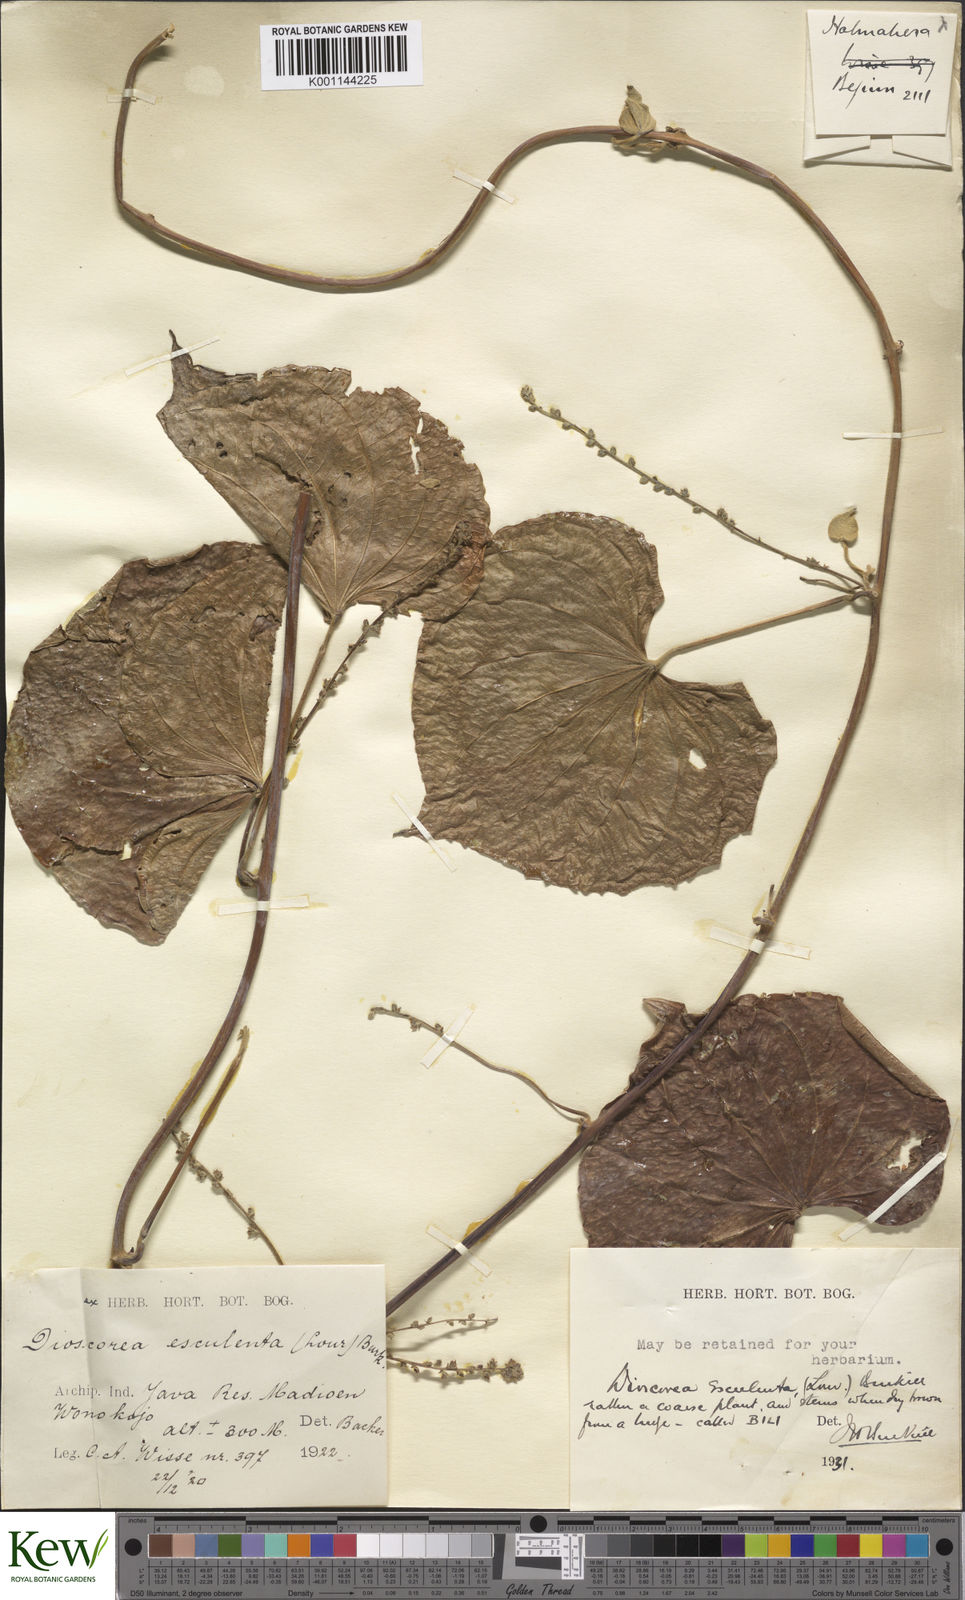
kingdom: Plantae
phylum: Tracheophyta
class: Liliopsida
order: Dioscoreales
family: Dioscoreaceae
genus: Dioscorea
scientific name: Dioscorea esculenta
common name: Chinese yam
